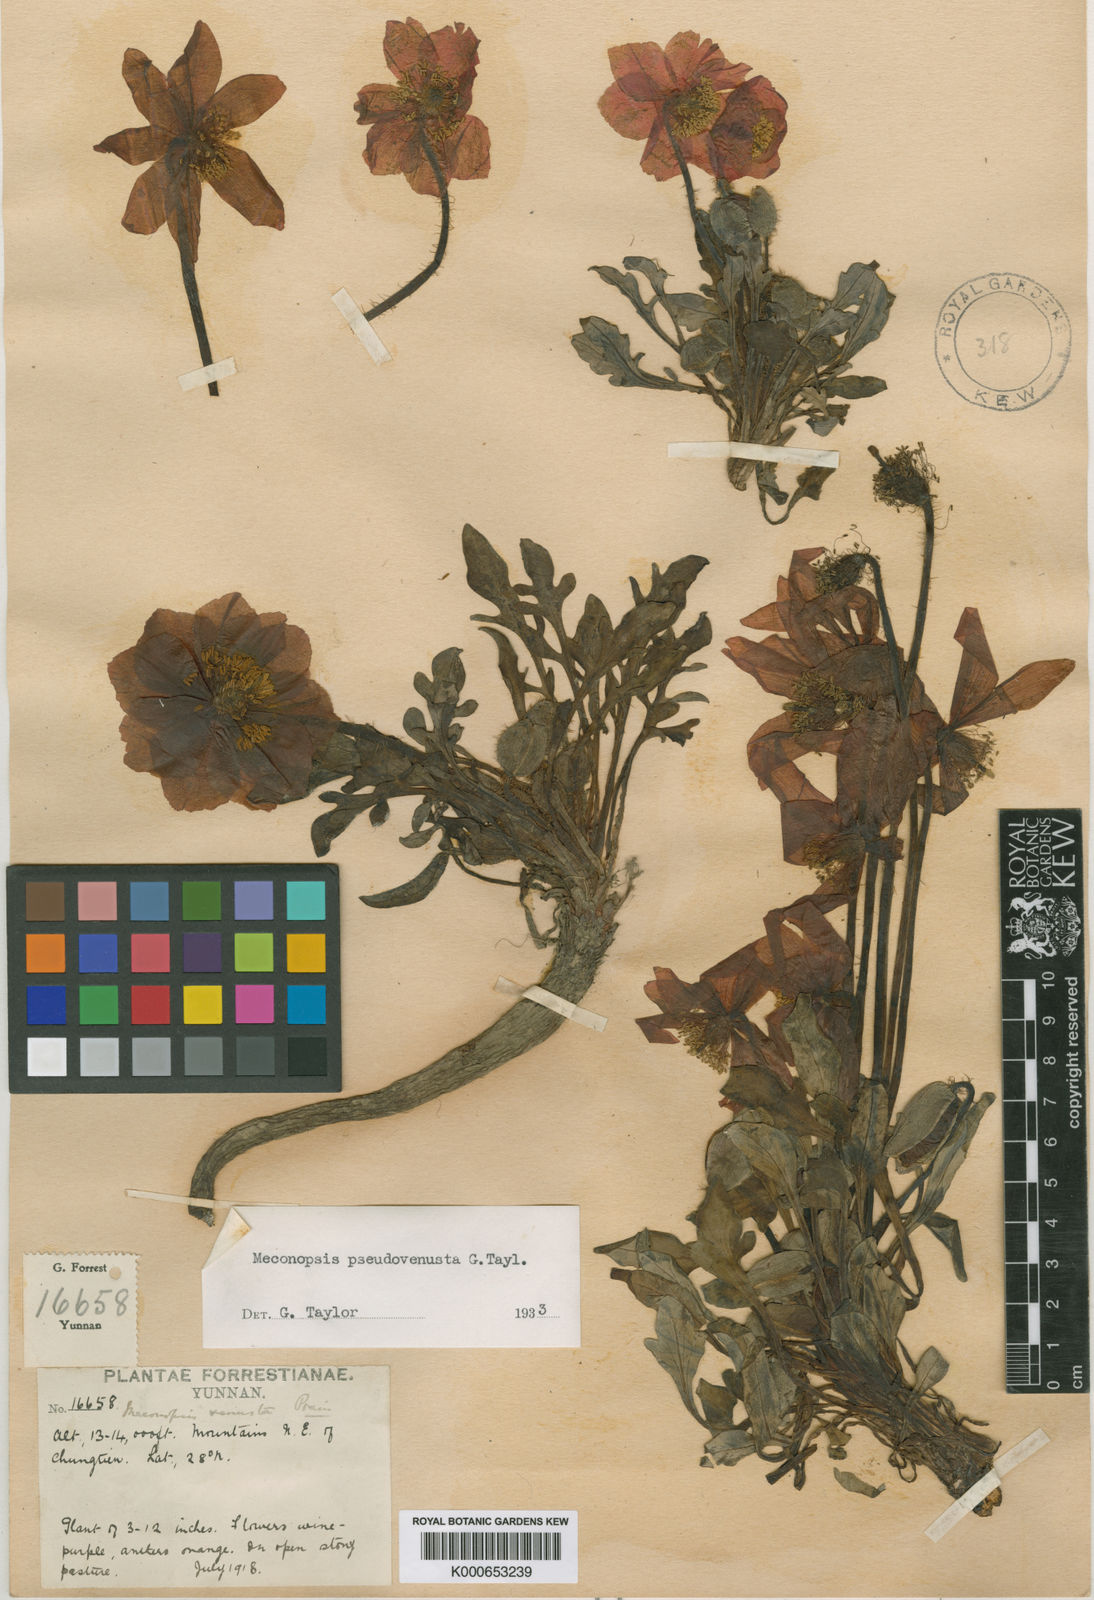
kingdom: Plantae
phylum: Tracheophyta
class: Magnoliopsida
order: Ranunculales
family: Papaveraceae
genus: Meconopsis
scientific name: Meconopsis pseudovenusta
